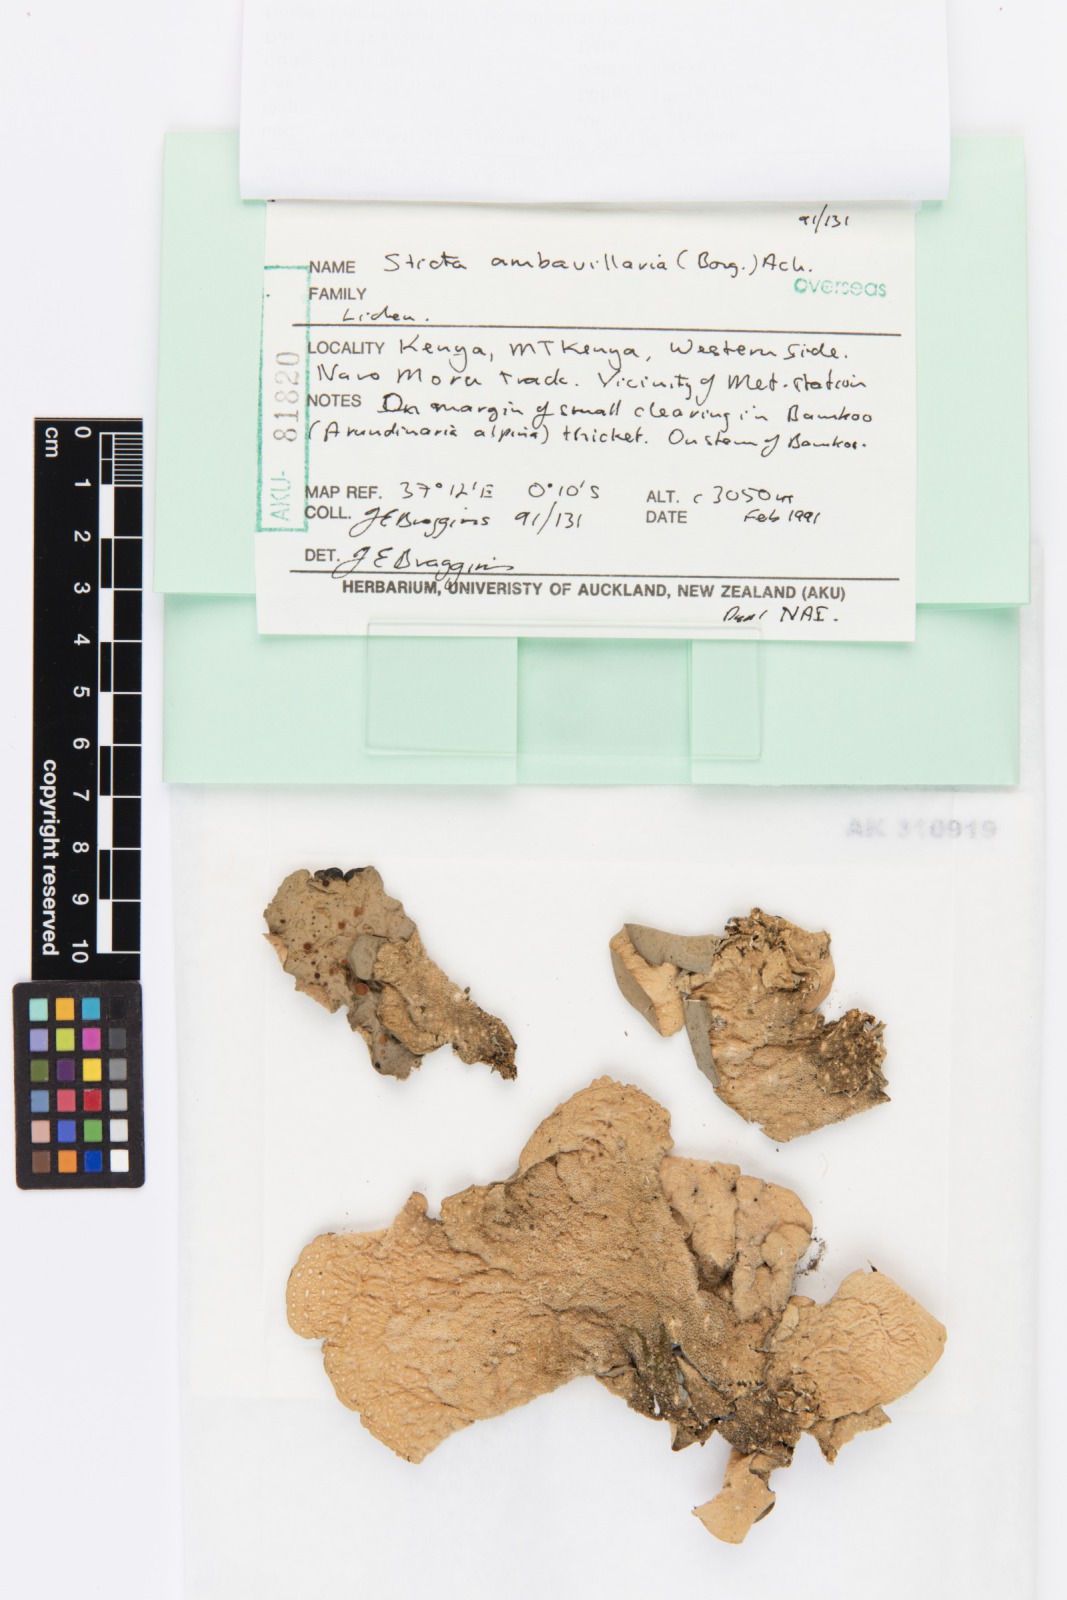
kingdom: Fungi
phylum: Ascomycota
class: Lecanoromycetes
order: Peltigerales
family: Lobariaceae
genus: Sticta
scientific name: Sticta ambavillaria
